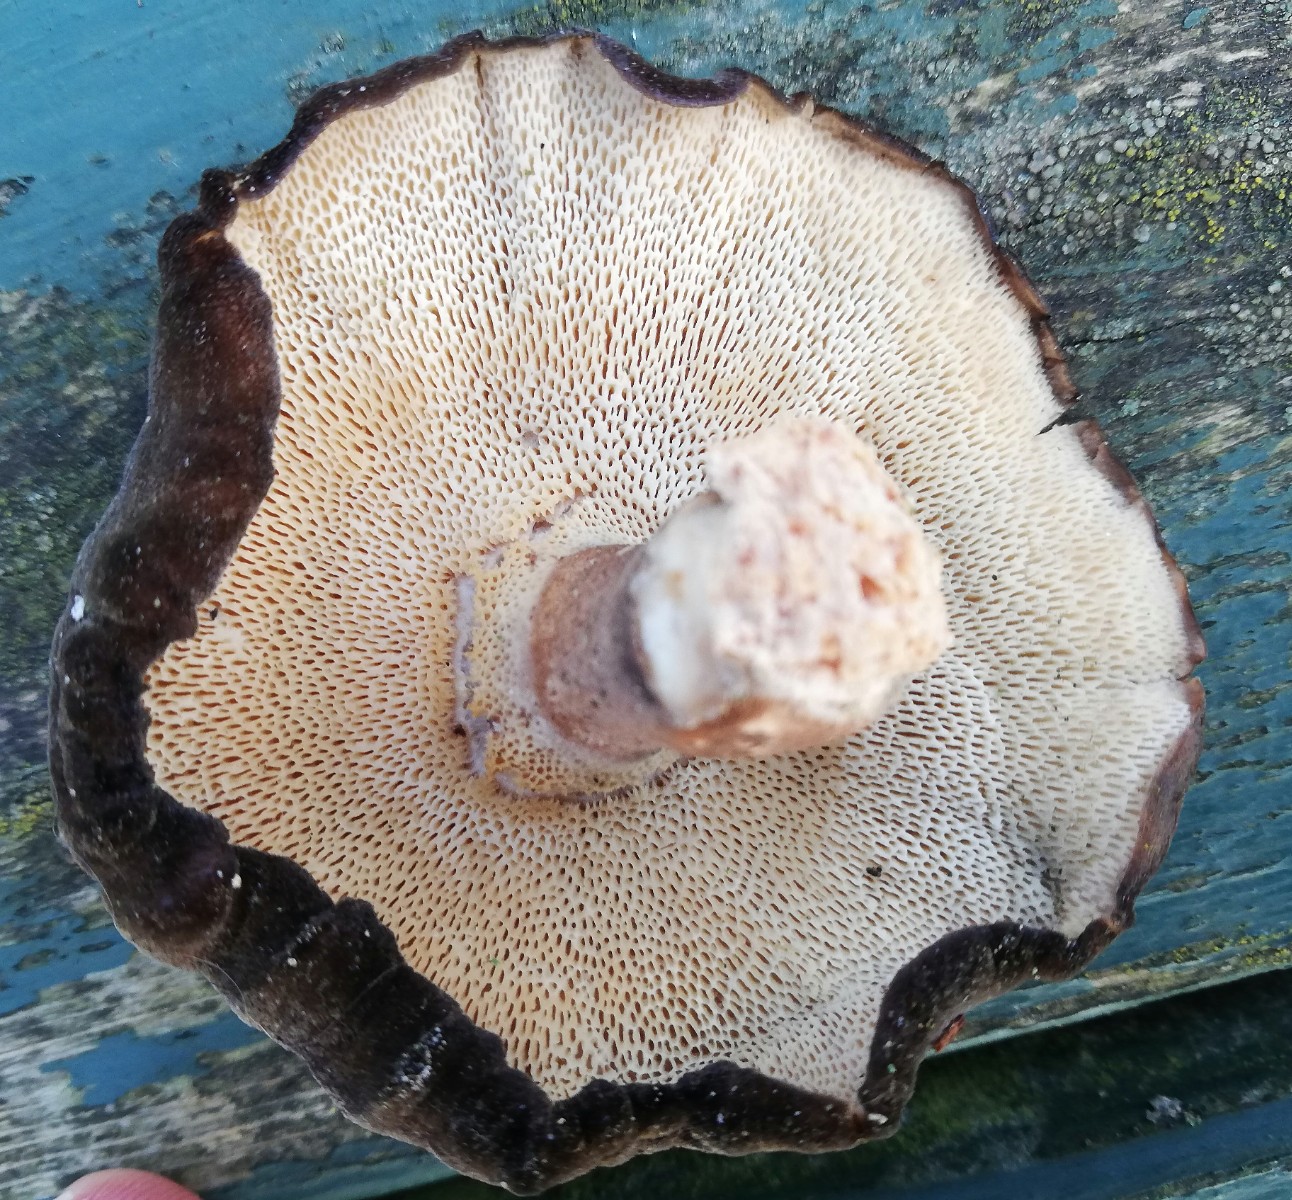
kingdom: Fungi
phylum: Basidiomycota
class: Agaricomycetes
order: Polyporales
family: Polyporaceae
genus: Lentinus
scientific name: Lentinus brumalis
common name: vinter-stilkporesvamp
